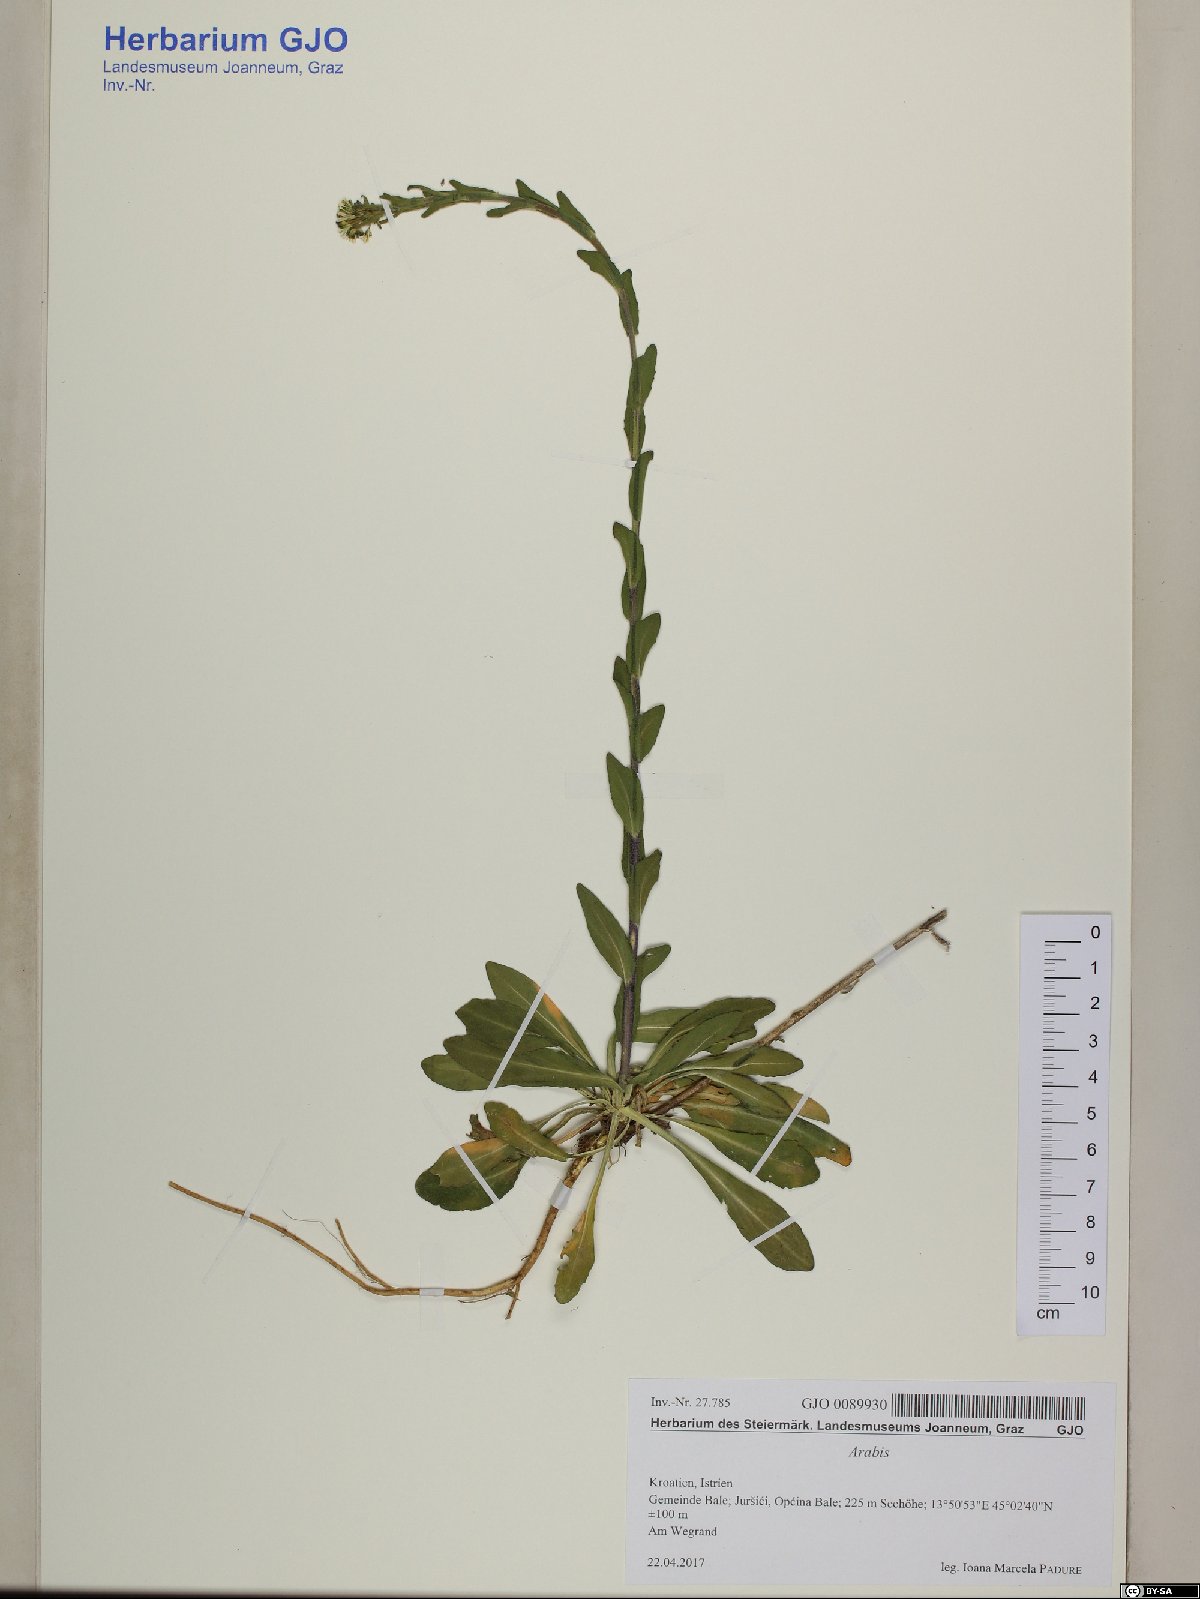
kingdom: Plantae
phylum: Tracheophyta
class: Magnoliopsida
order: Brassicales
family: Brassicaceae
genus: Arabis
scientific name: Arabis sagittata
